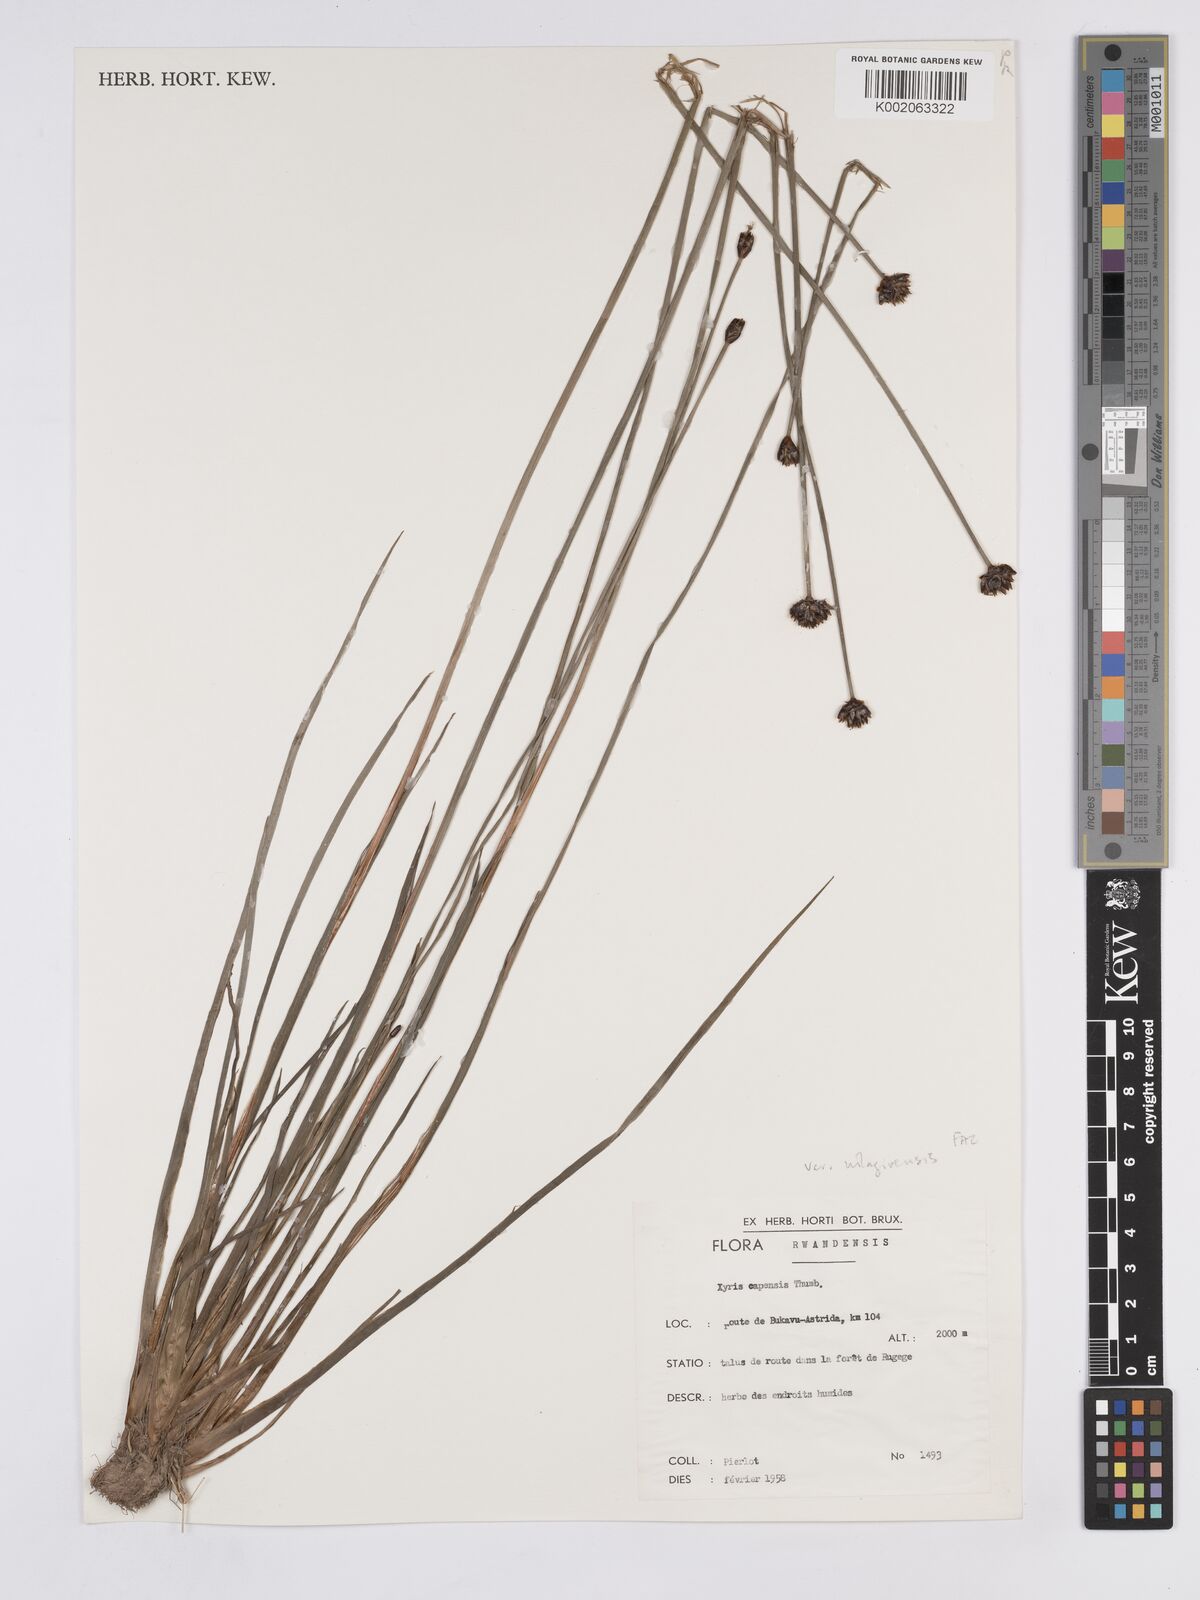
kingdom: Plantae
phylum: Tracheophyta
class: Liliopsida
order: Poales
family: Xyridaceae
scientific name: Xyridaceae
